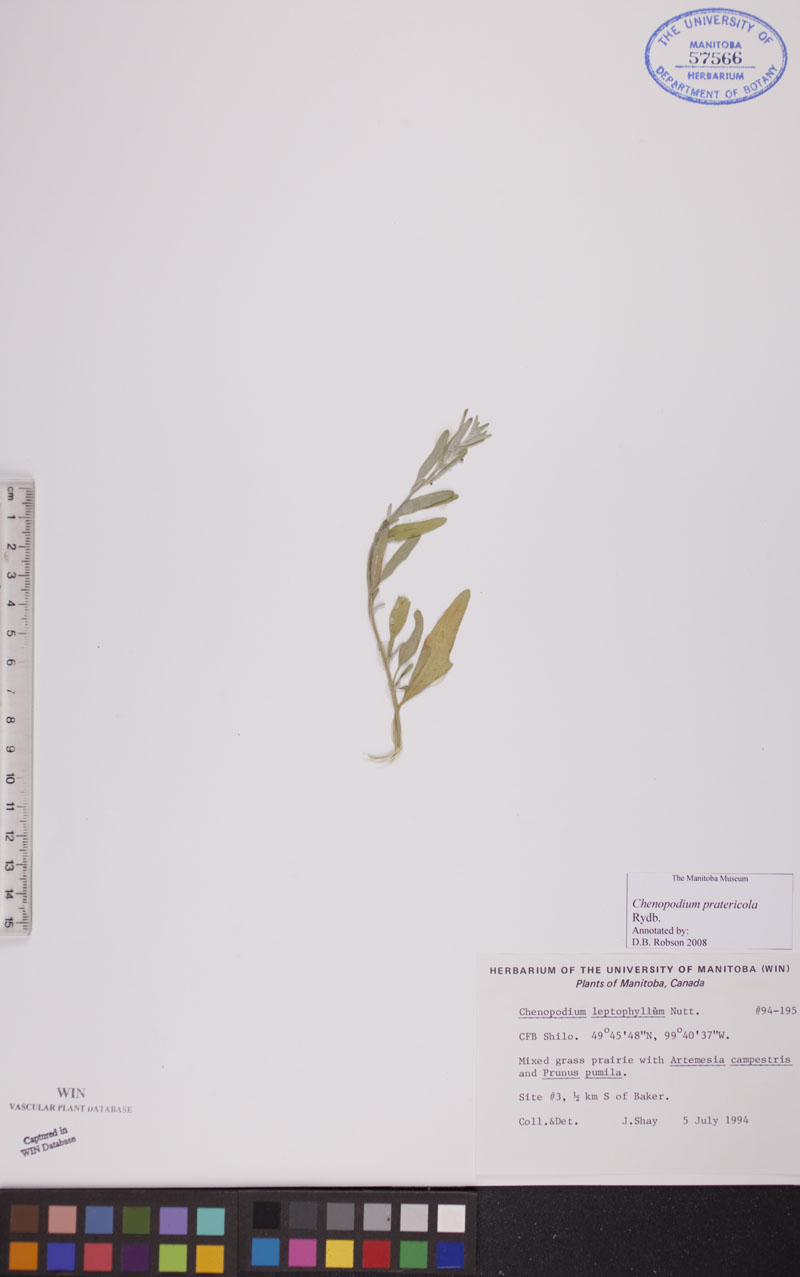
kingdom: Plantae
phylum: Tracheophyta
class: Magnoliopsida
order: Caryophyllales
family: Amaranthaceae
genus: Chenopodium
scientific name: Chenopodium pratericola
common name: Desert goosefoot
